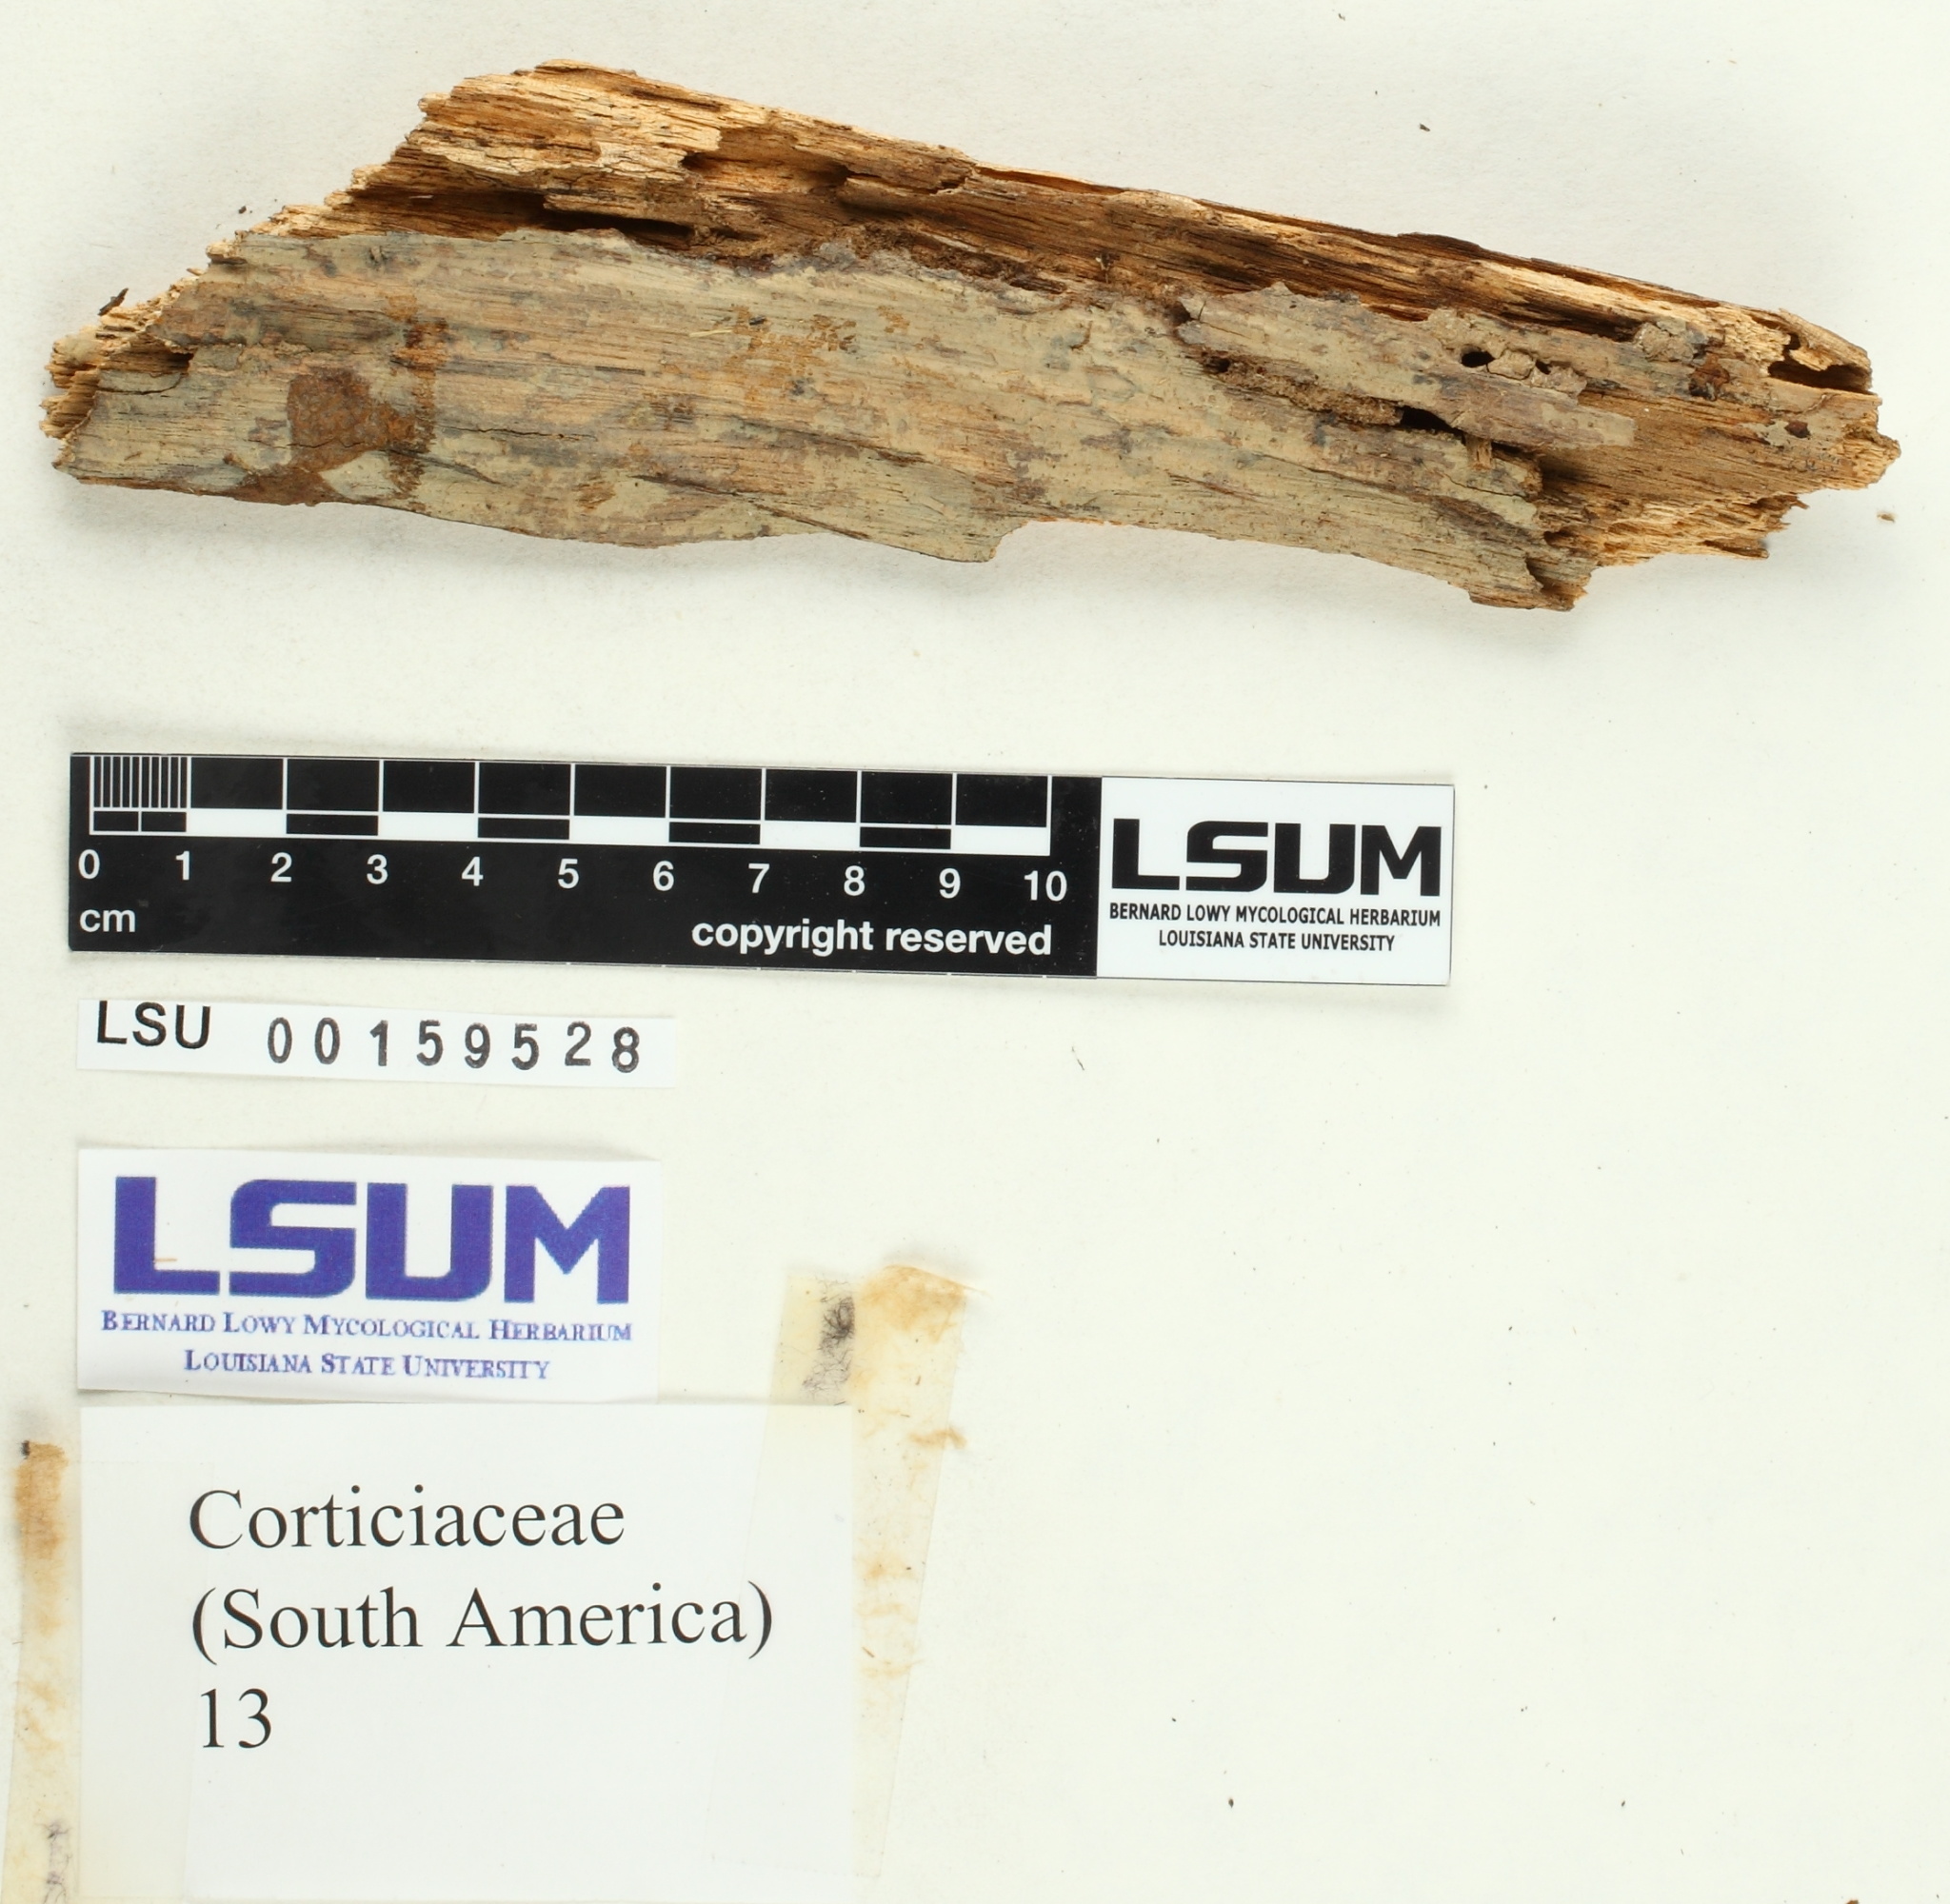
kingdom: Fungi
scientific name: Fungi
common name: Fungi
